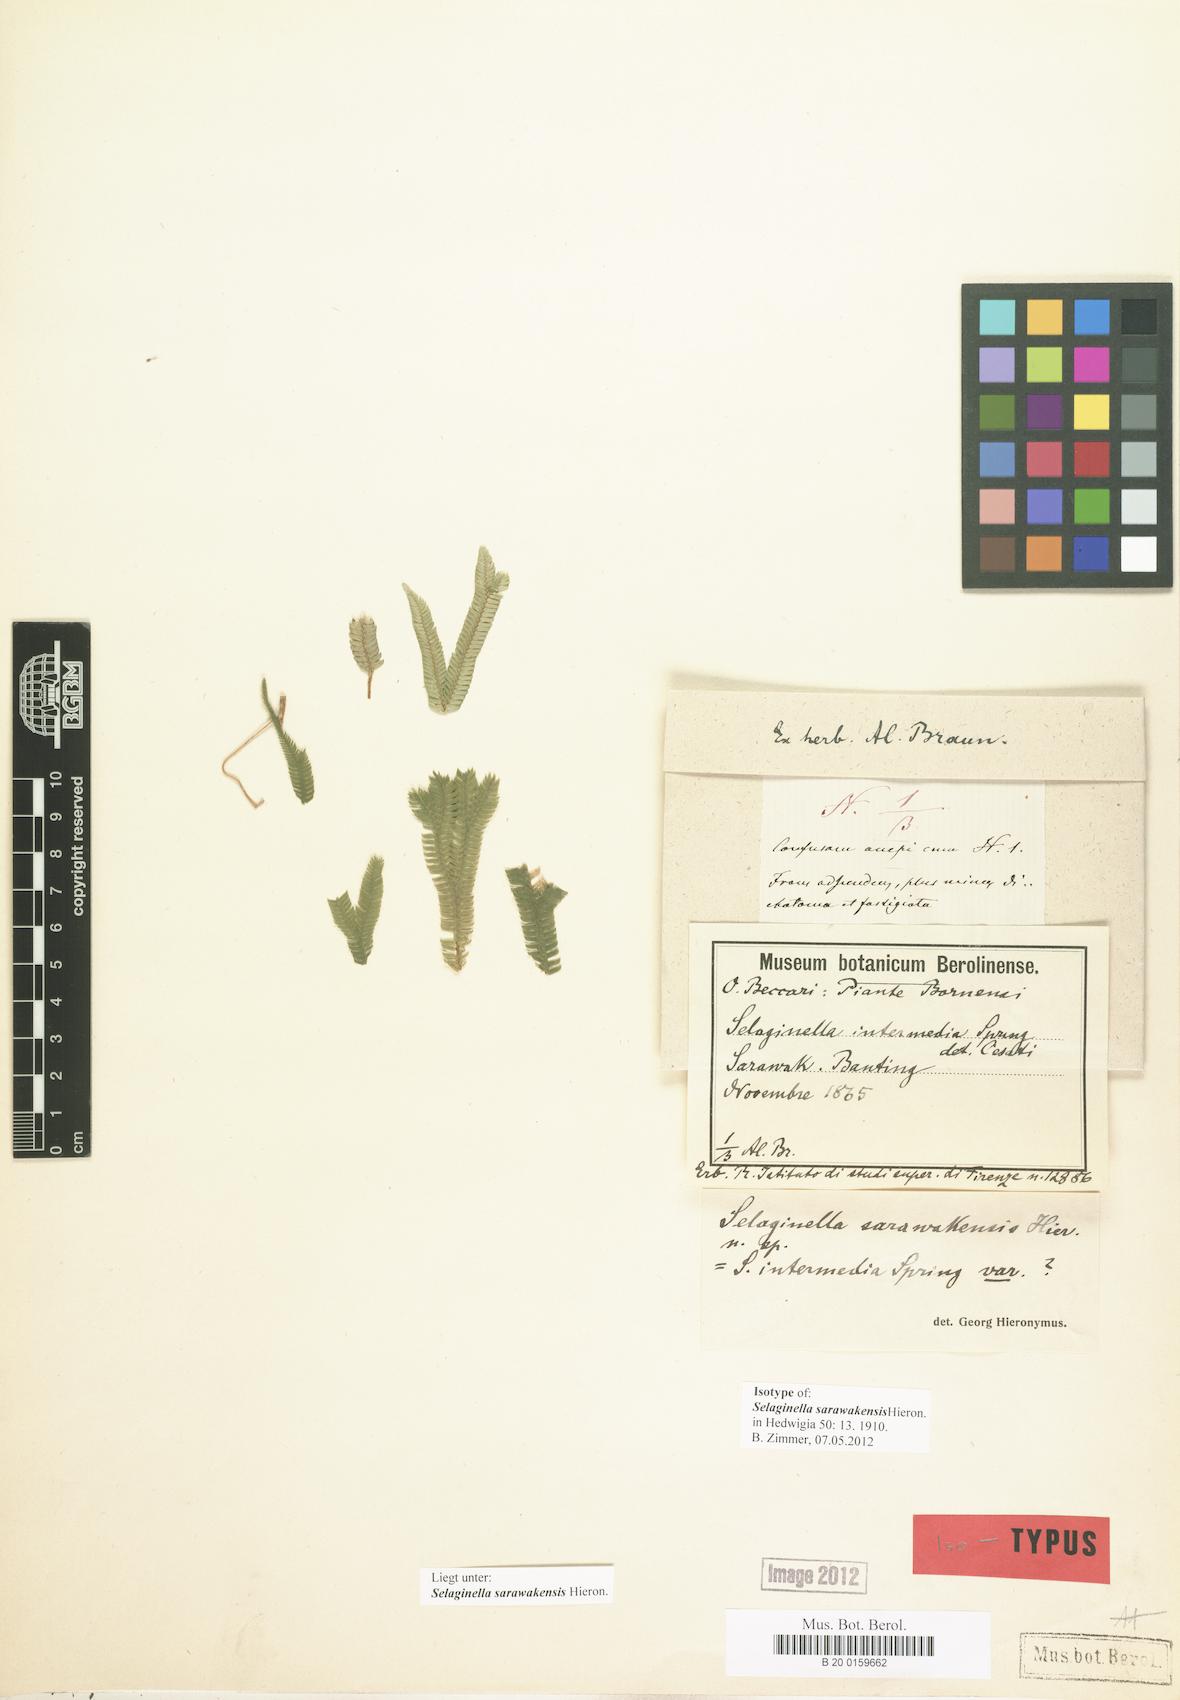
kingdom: Plantae
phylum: Tracheophyta
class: Lycopodiopsida
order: Selaginellales
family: Selaginellaceae
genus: Selaginella
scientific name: Selaginella sarawakensis
